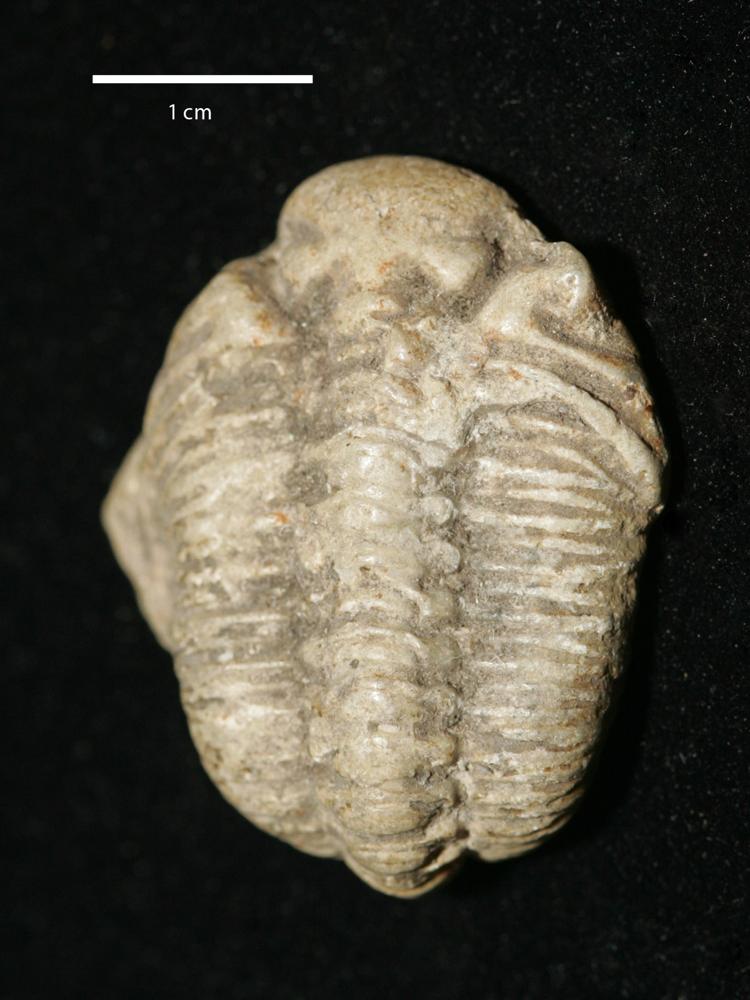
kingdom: Animalia
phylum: Arthropoda
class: Trilobita
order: Phacopida
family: Pterygometopidae
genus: Chasmops
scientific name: Chasmops odini
